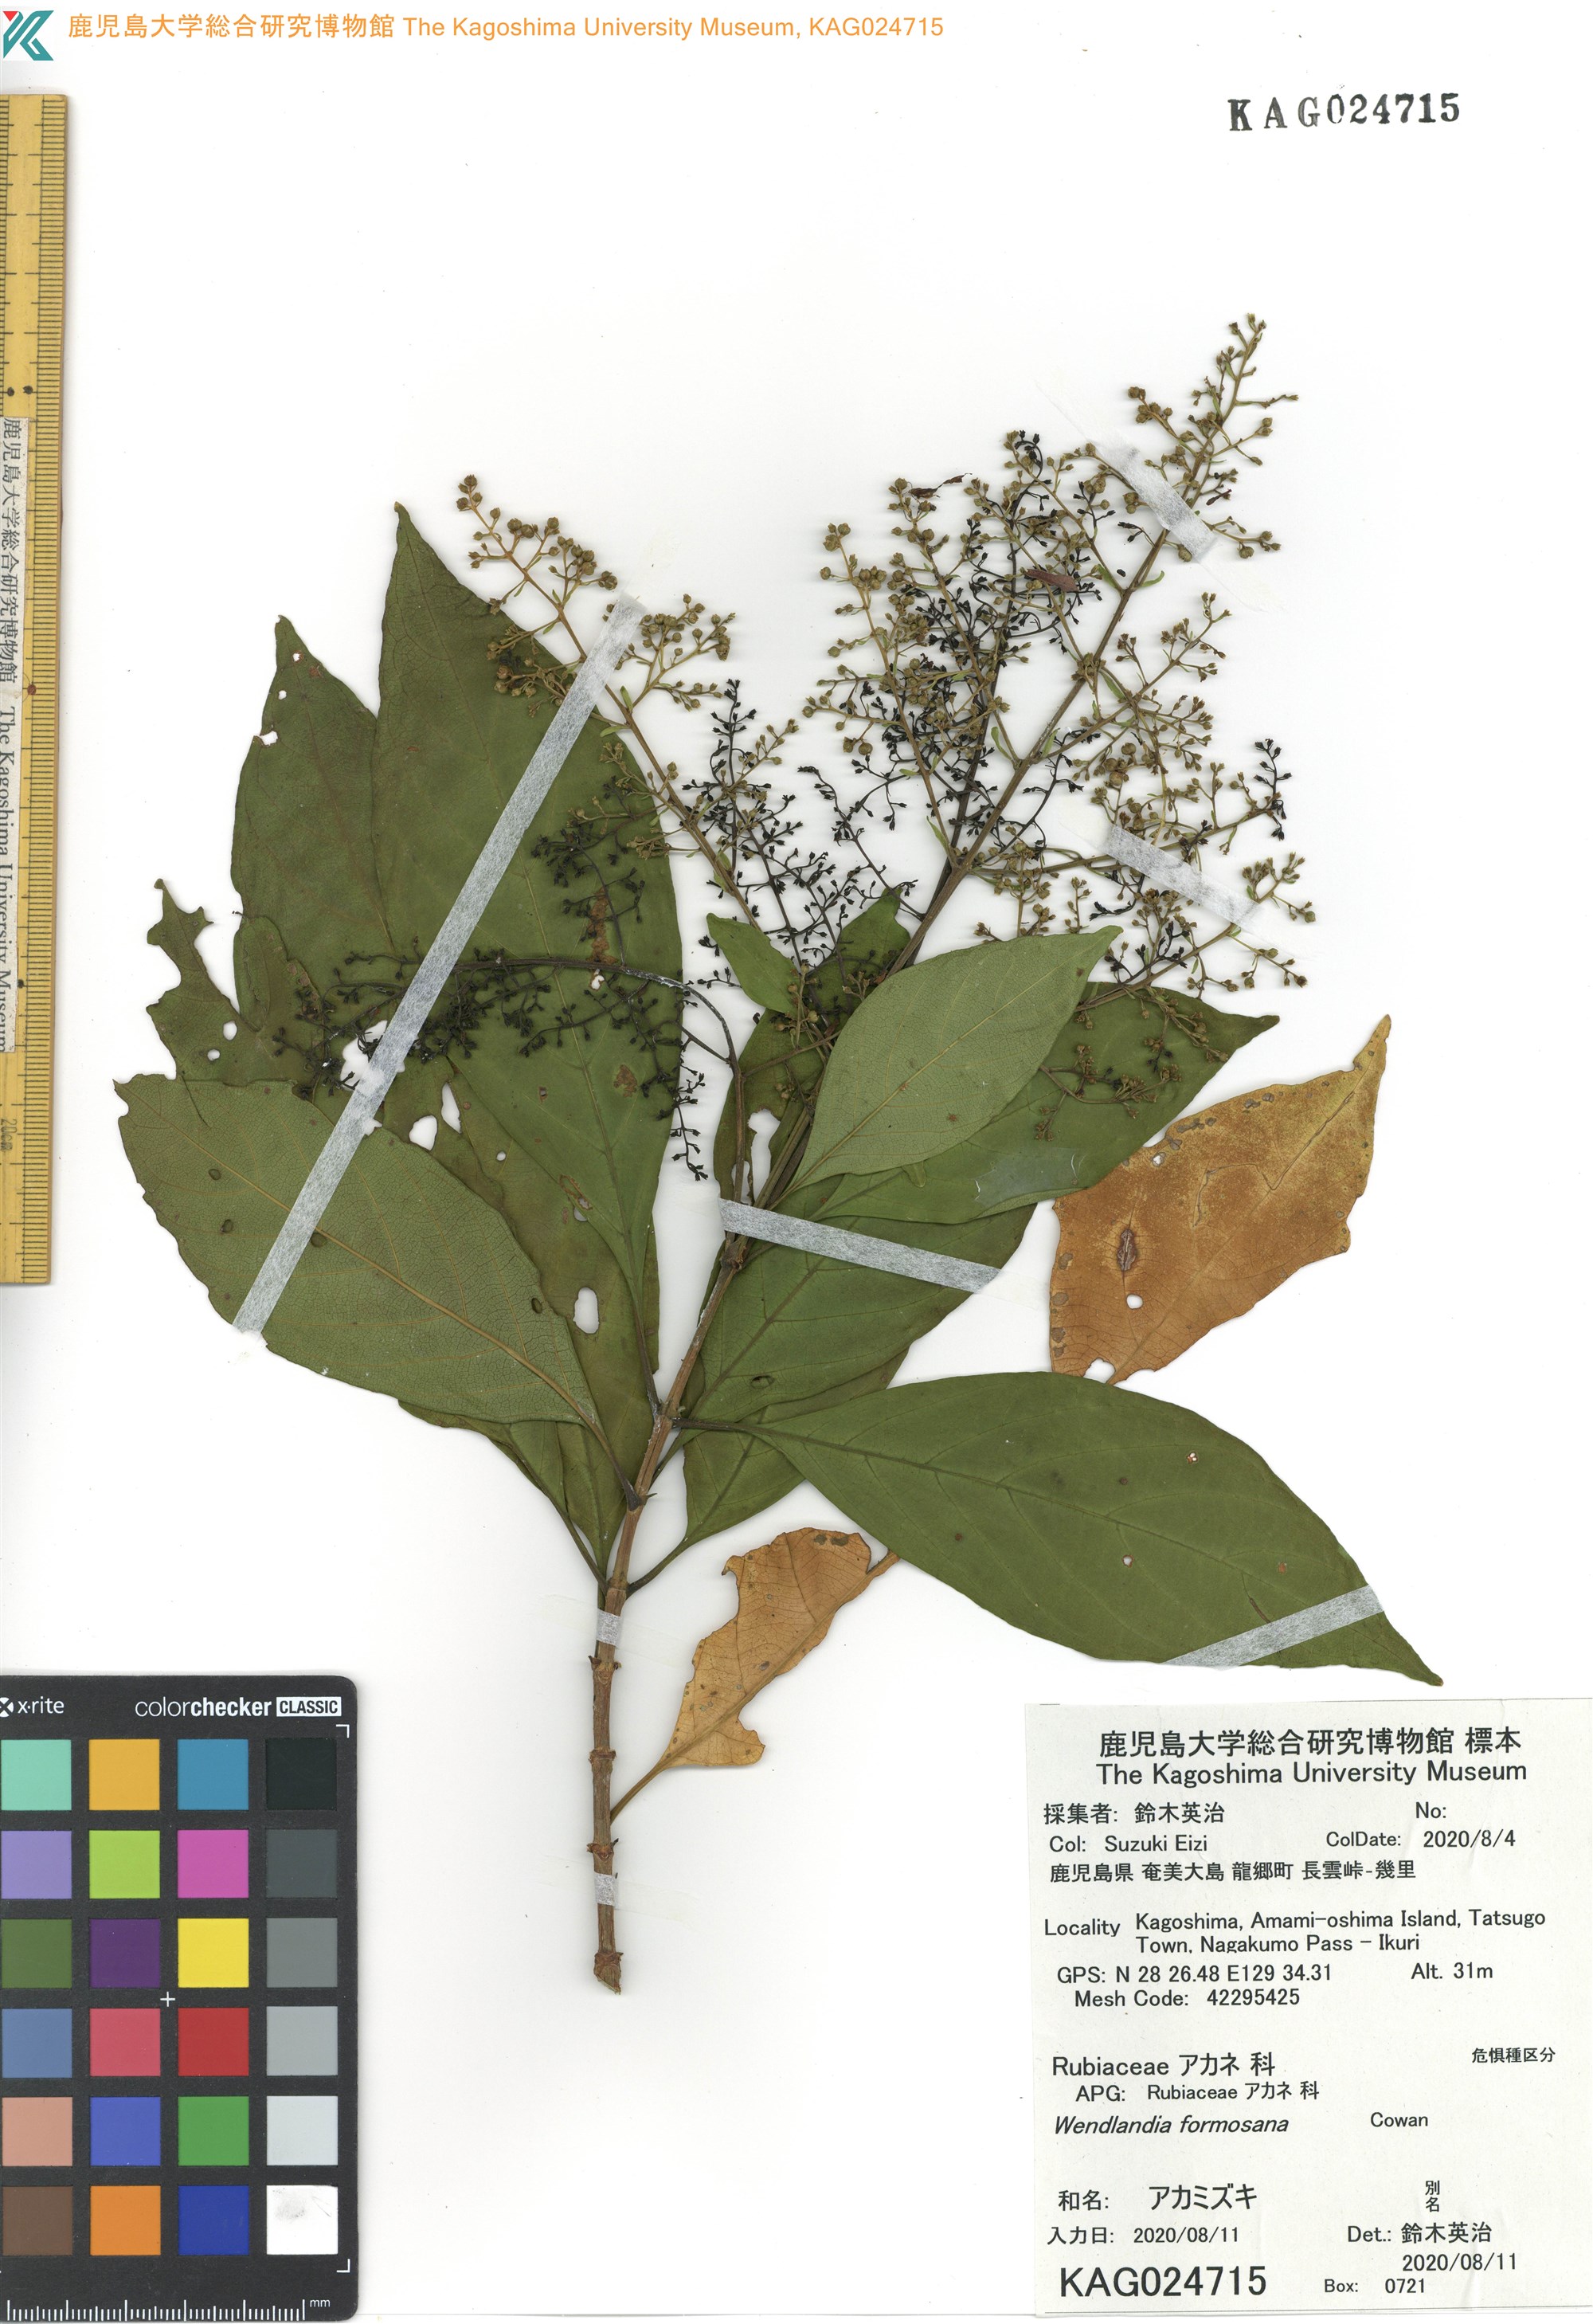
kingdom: Plantae
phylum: Tracheophyta
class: Magnoliopsida
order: Gentianales
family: Rubiaceae
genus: Wendlandia
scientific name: Wendlandia formosana
